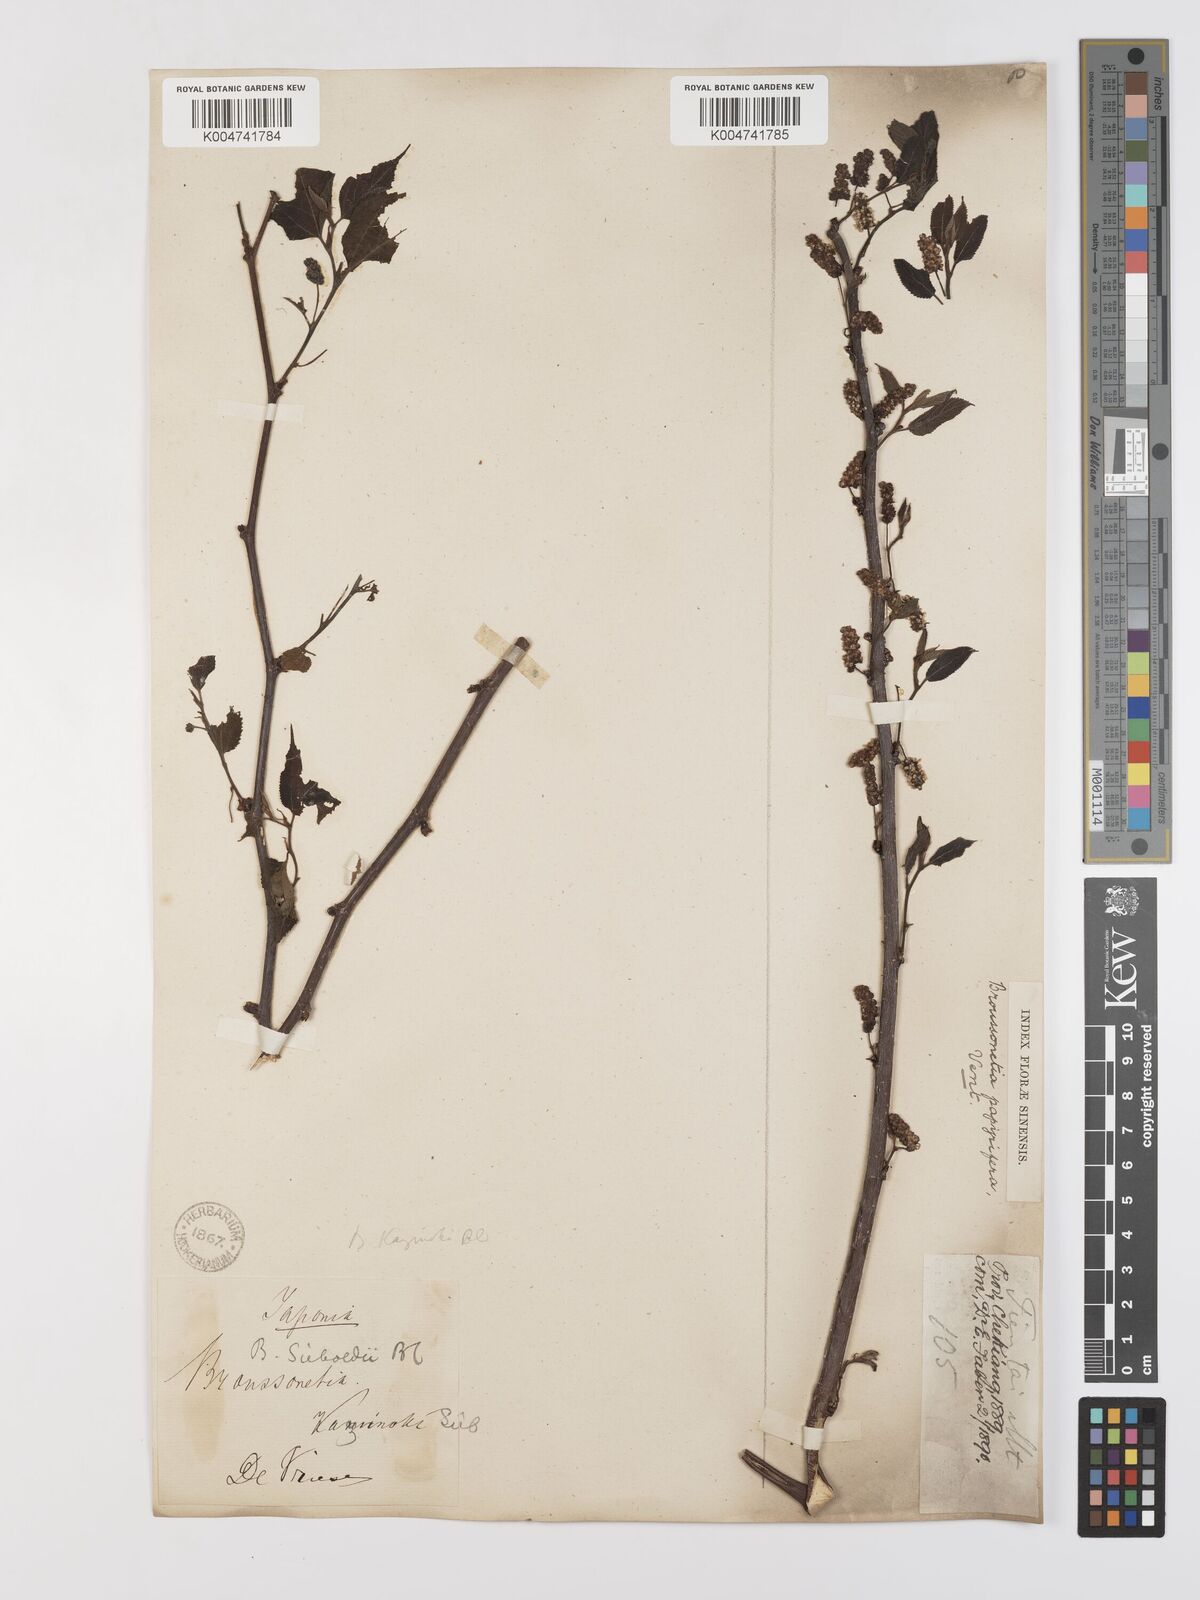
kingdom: Plantae
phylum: Tracheophyta
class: Magnoliopsida
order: Rosales
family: Moraceae
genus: Broussonetia
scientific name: Broussonetia papyrifera
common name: Paper mulberry
